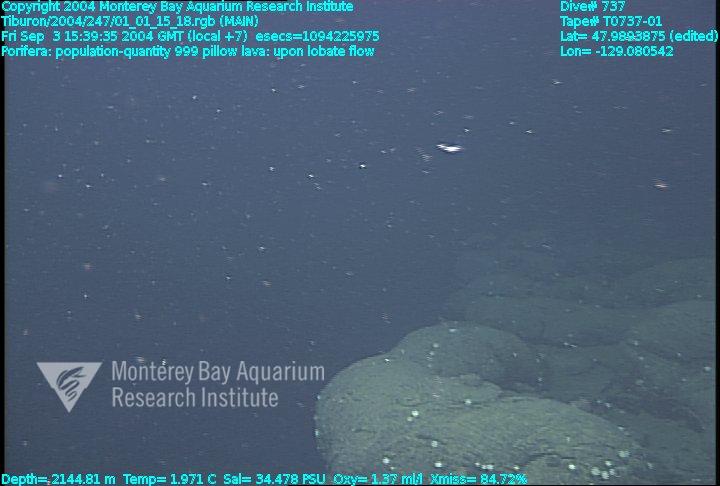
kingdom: Animalia
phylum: Porifera
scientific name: Porifera
